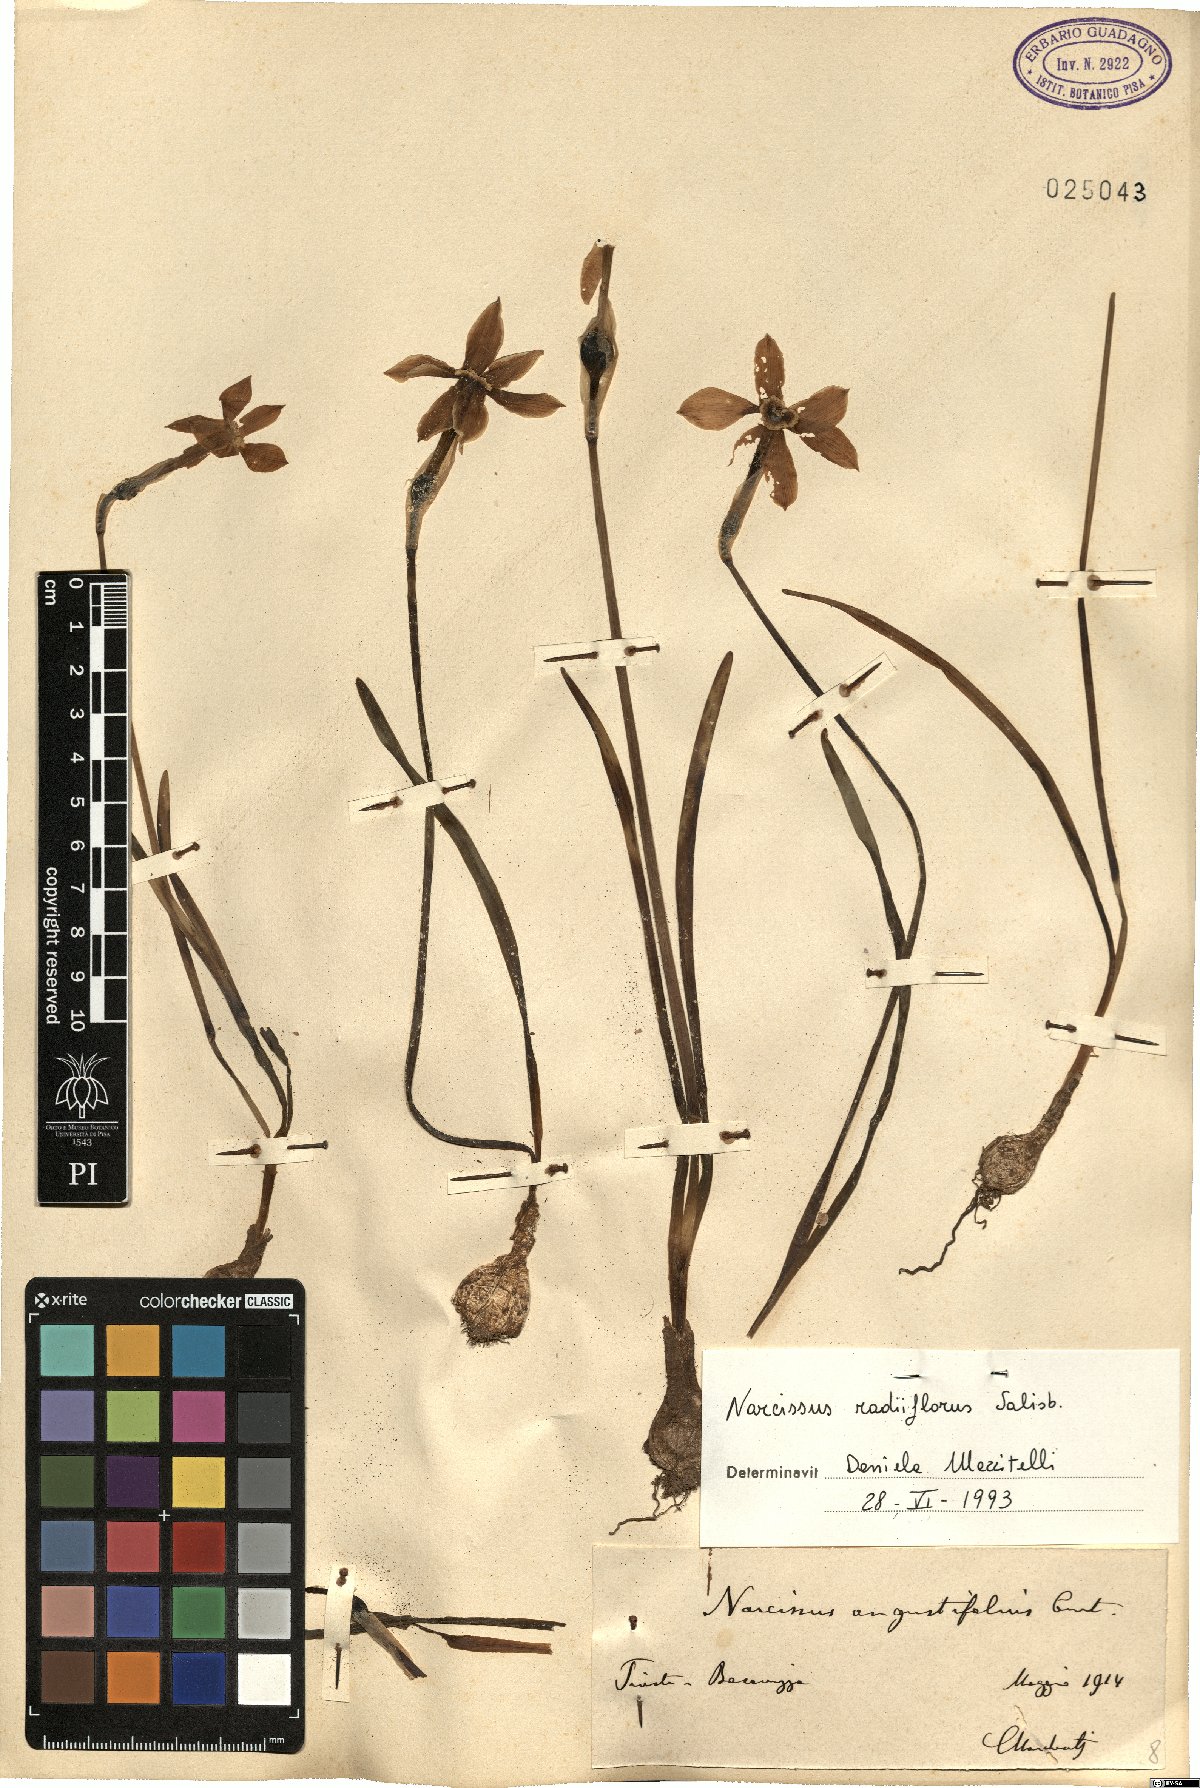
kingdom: Plantae
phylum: Tracheophyta
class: Liliopsida
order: Asparagales
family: Amaryllidaceae
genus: Narcissus
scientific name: Narcissus poeticus
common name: Pheasant's-eye daffodil
